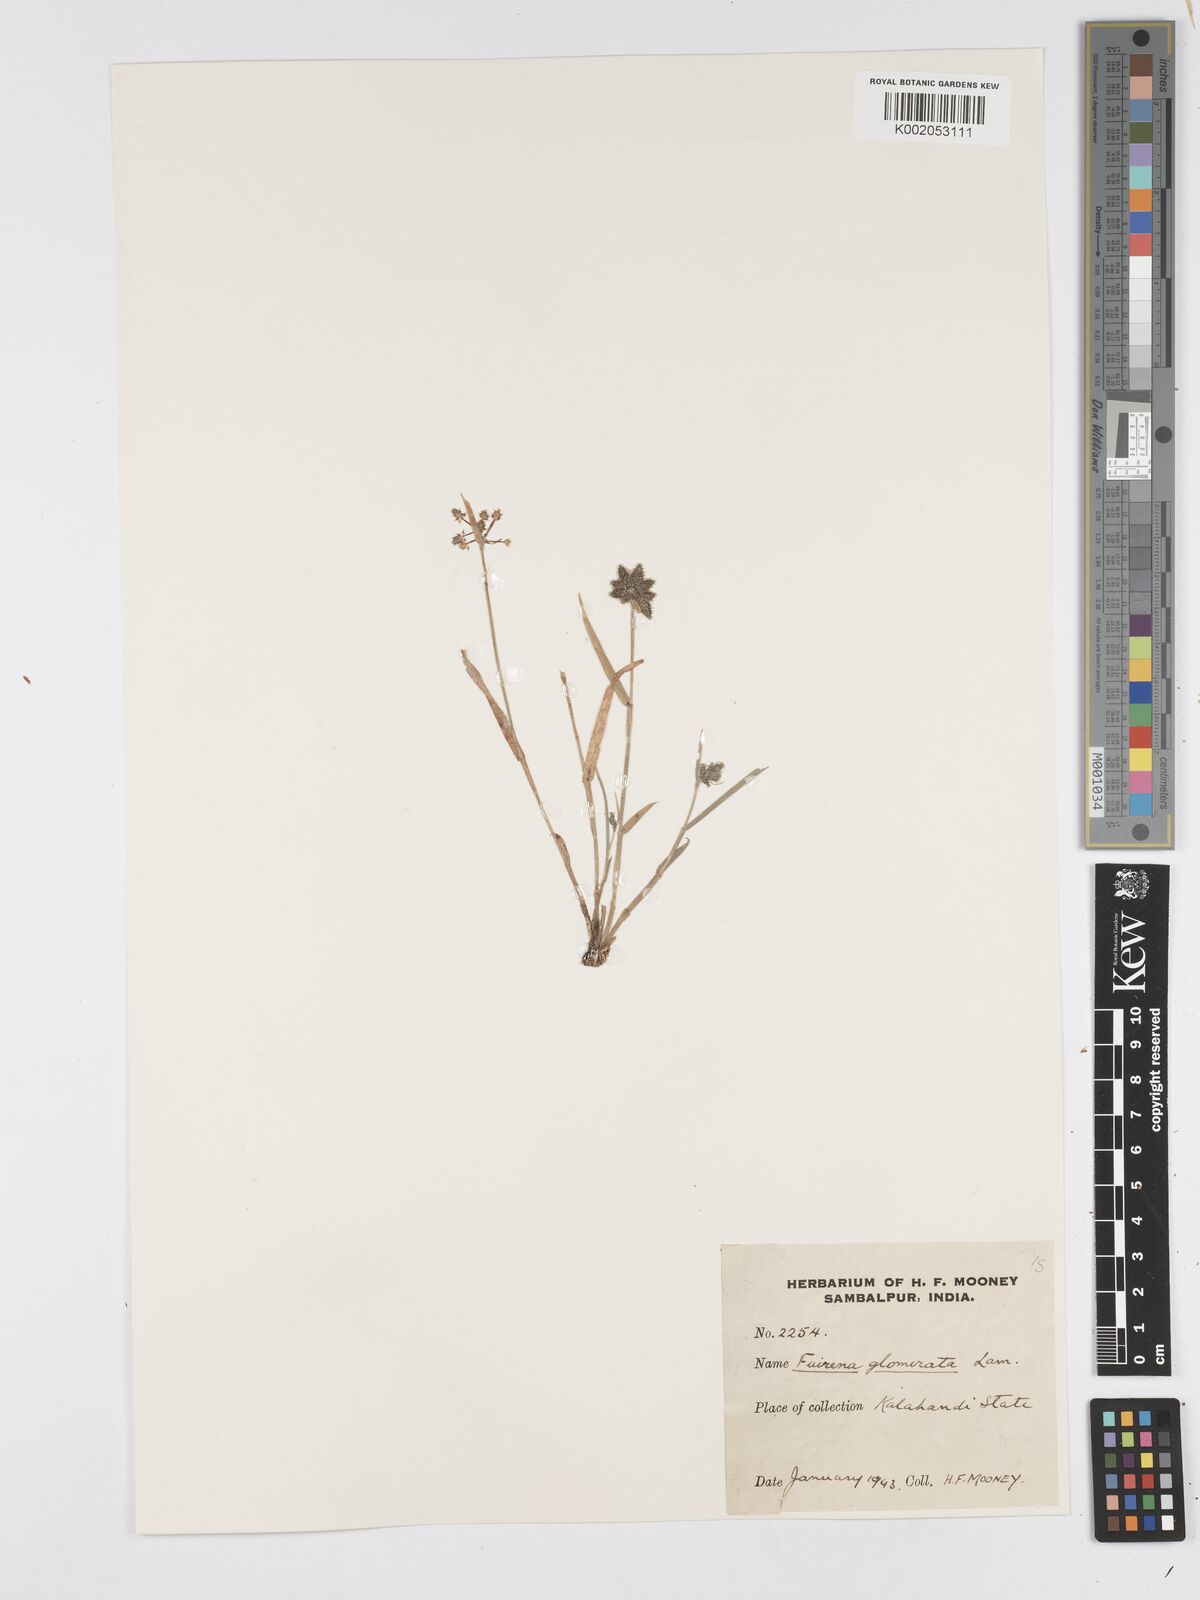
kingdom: Plantae
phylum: Tracheophyta
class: Liliopsida
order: Poales
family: Cyperaceae
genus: Fuirena
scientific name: Fuirena ciliaris
